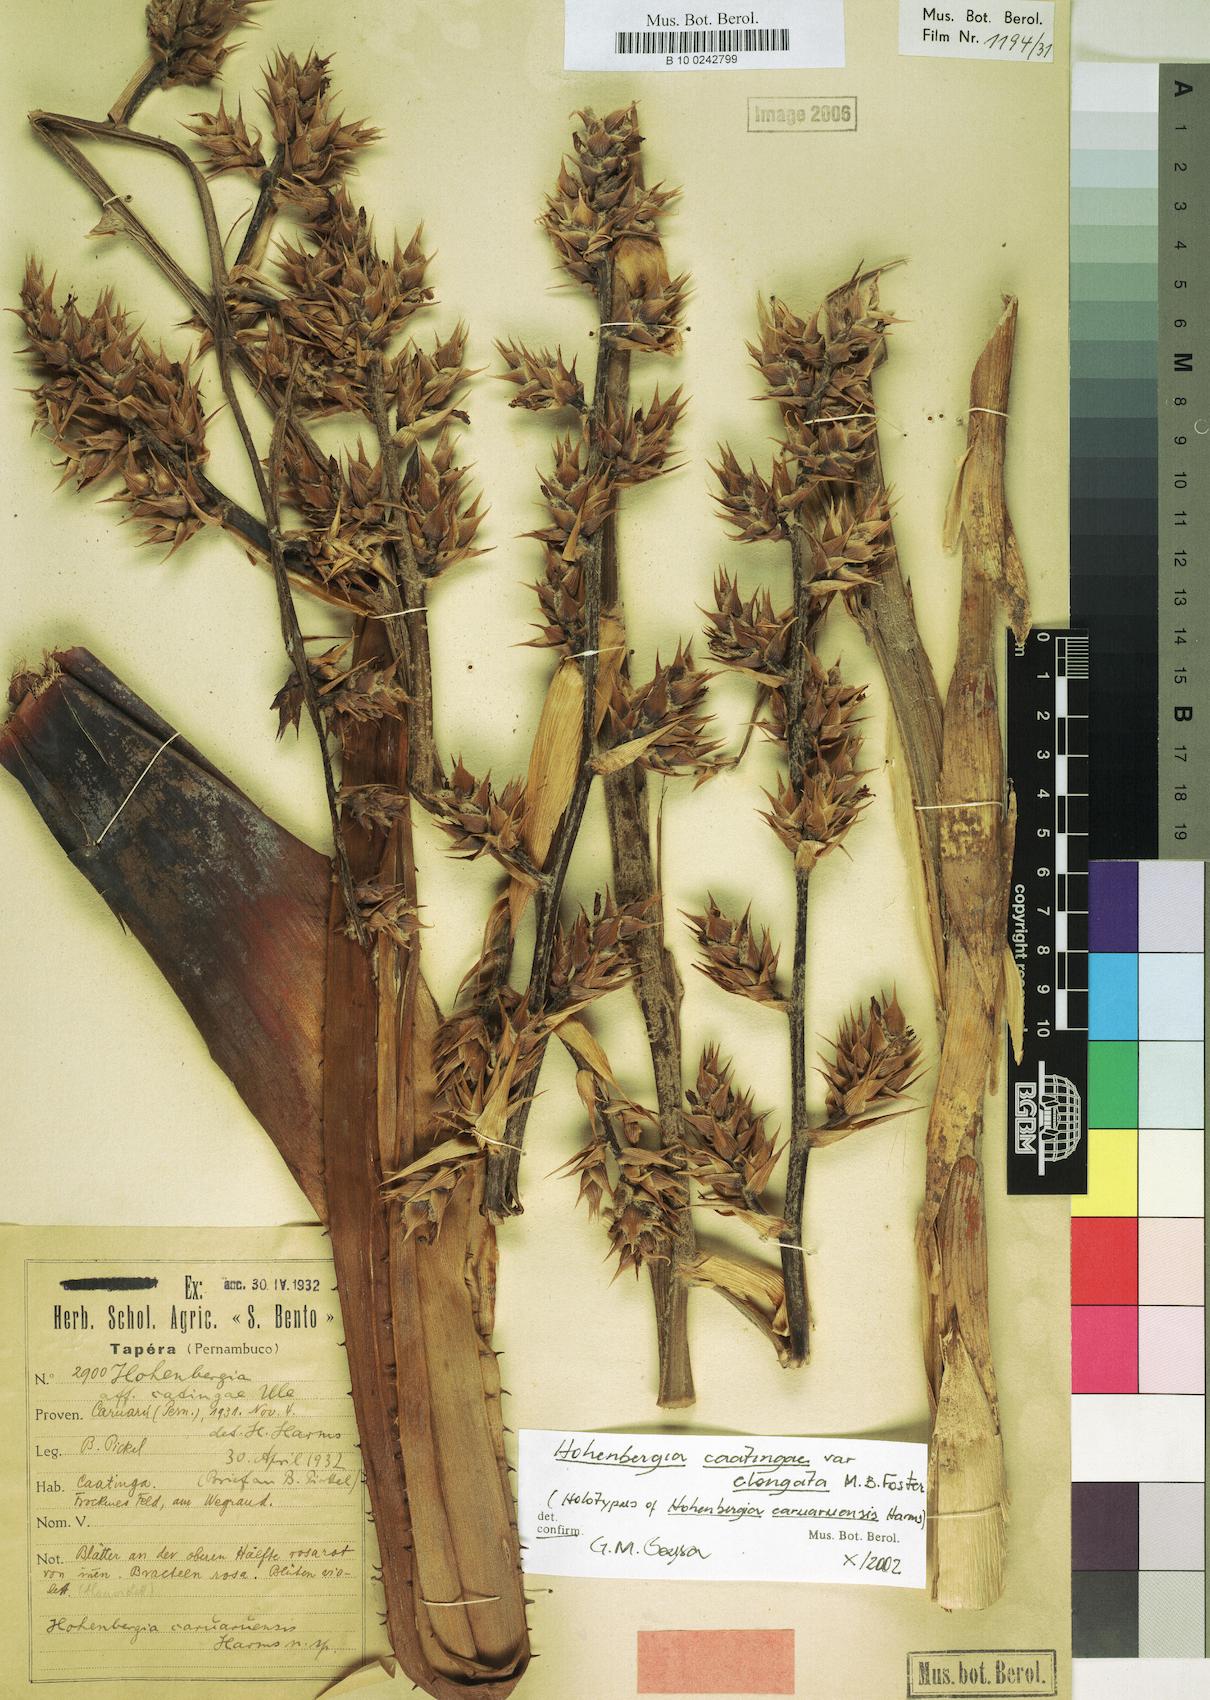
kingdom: Plantae
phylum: Tracheophyta
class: Liliopsida
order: Poales
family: Bromeliaceae
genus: Hohenbergia
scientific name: Hohenbergia catingae
